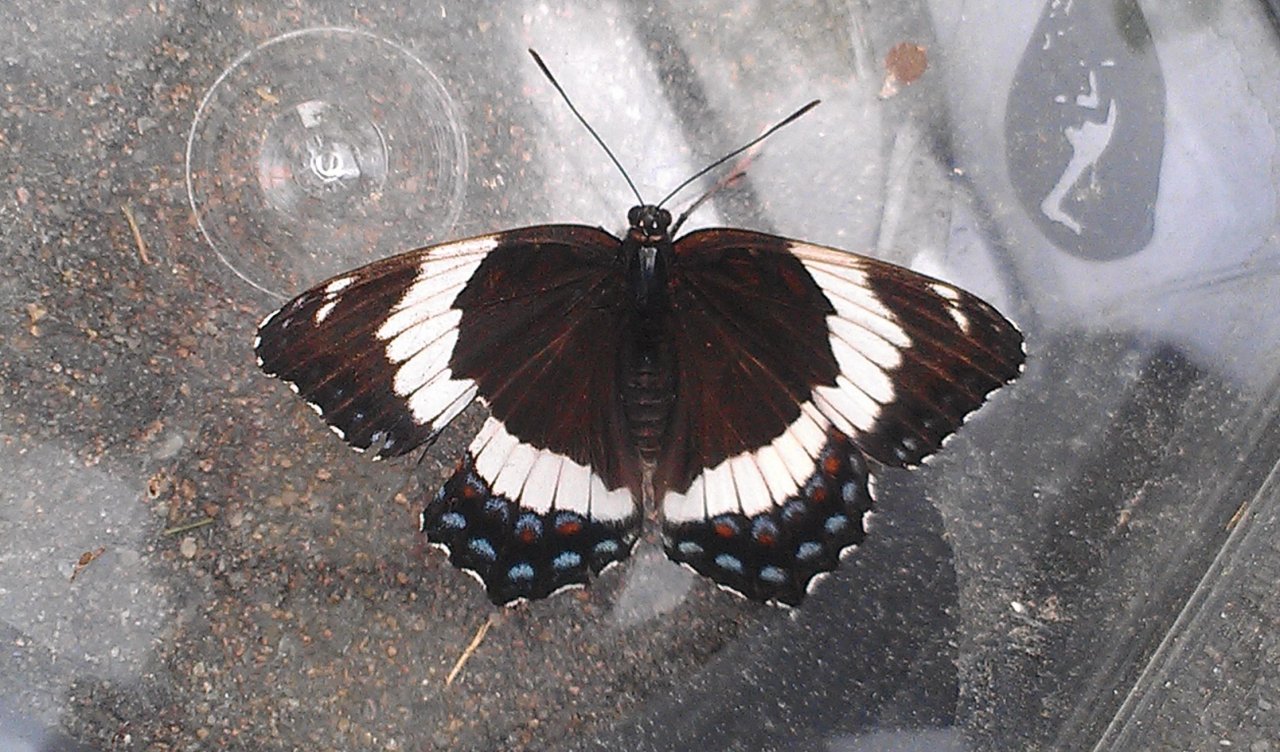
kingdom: Animalia
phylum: Arthropoda
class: Insecta
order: Lepidoptera
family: Nymphalidae
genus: Limenitis
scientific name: Limenitis arthemis
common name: Red-spotted Admiral
